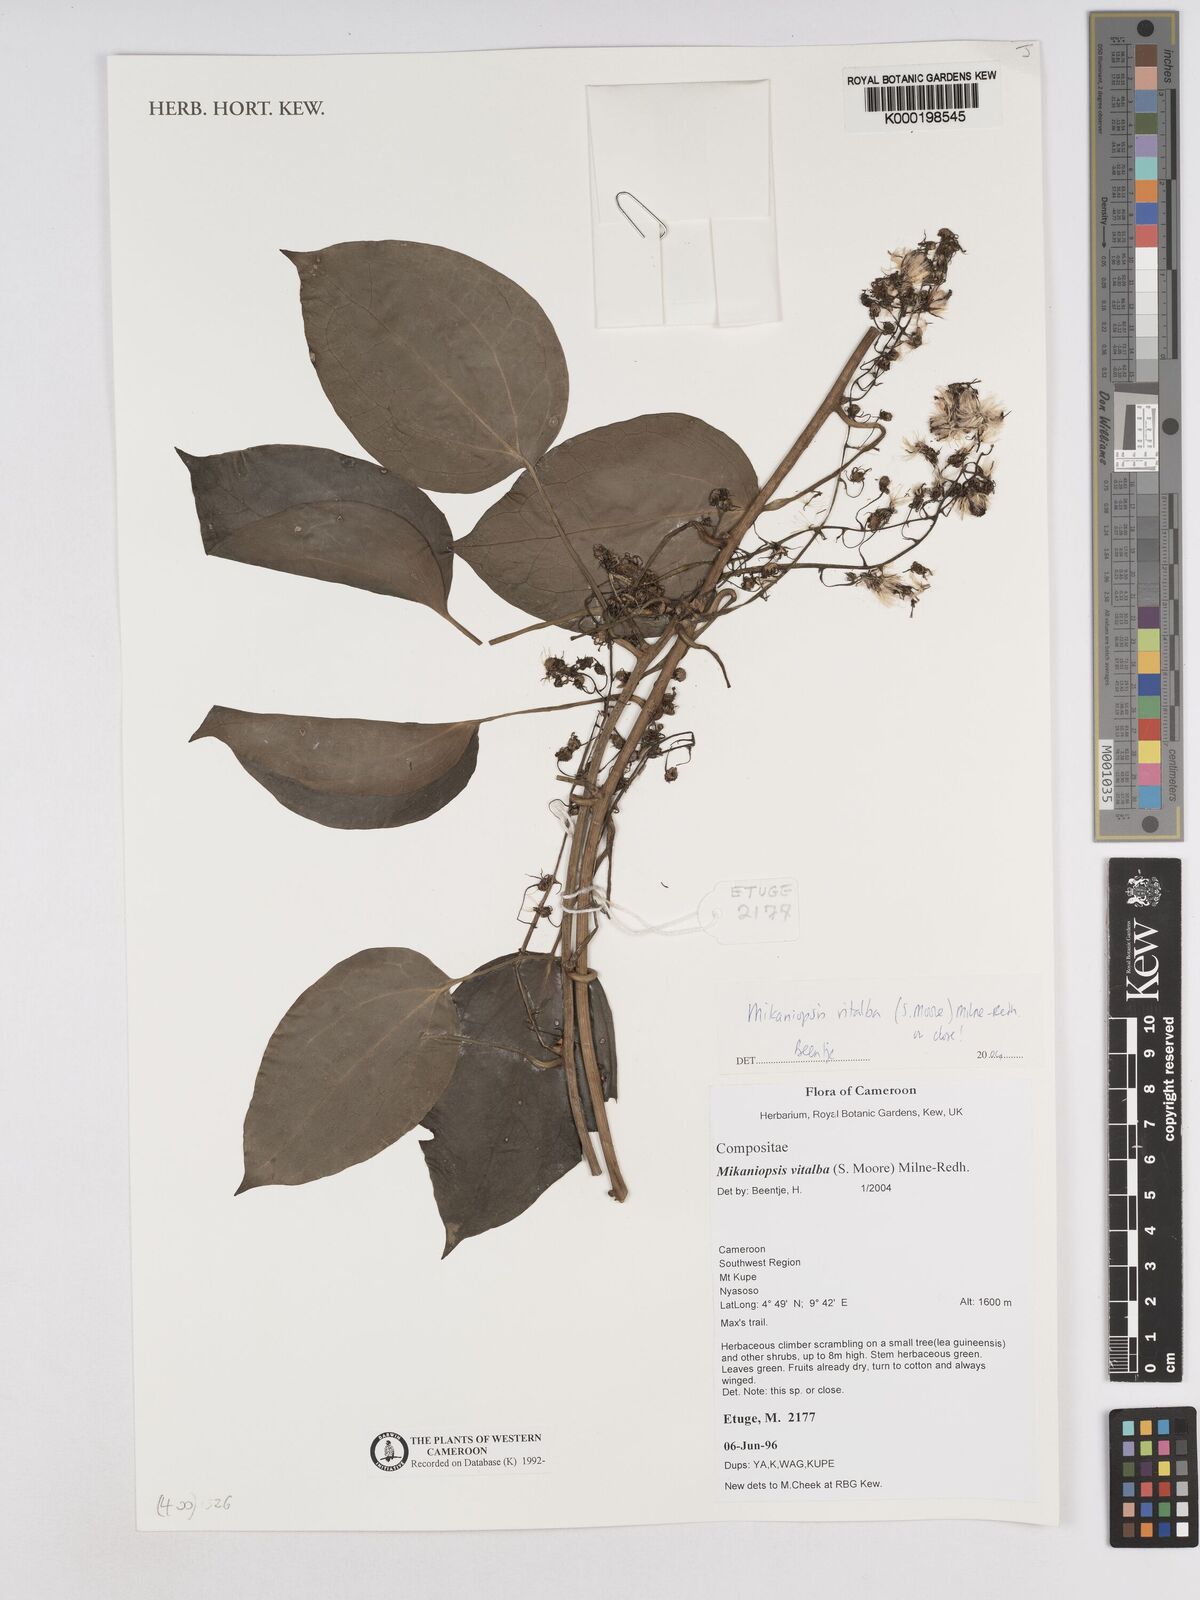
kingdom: Plantae
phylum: Tracheophyta
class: Magnoliopsida
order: Asterales
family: Asteraceae
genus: Mikaniopsis
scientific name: Mikaniopsis vitalba
